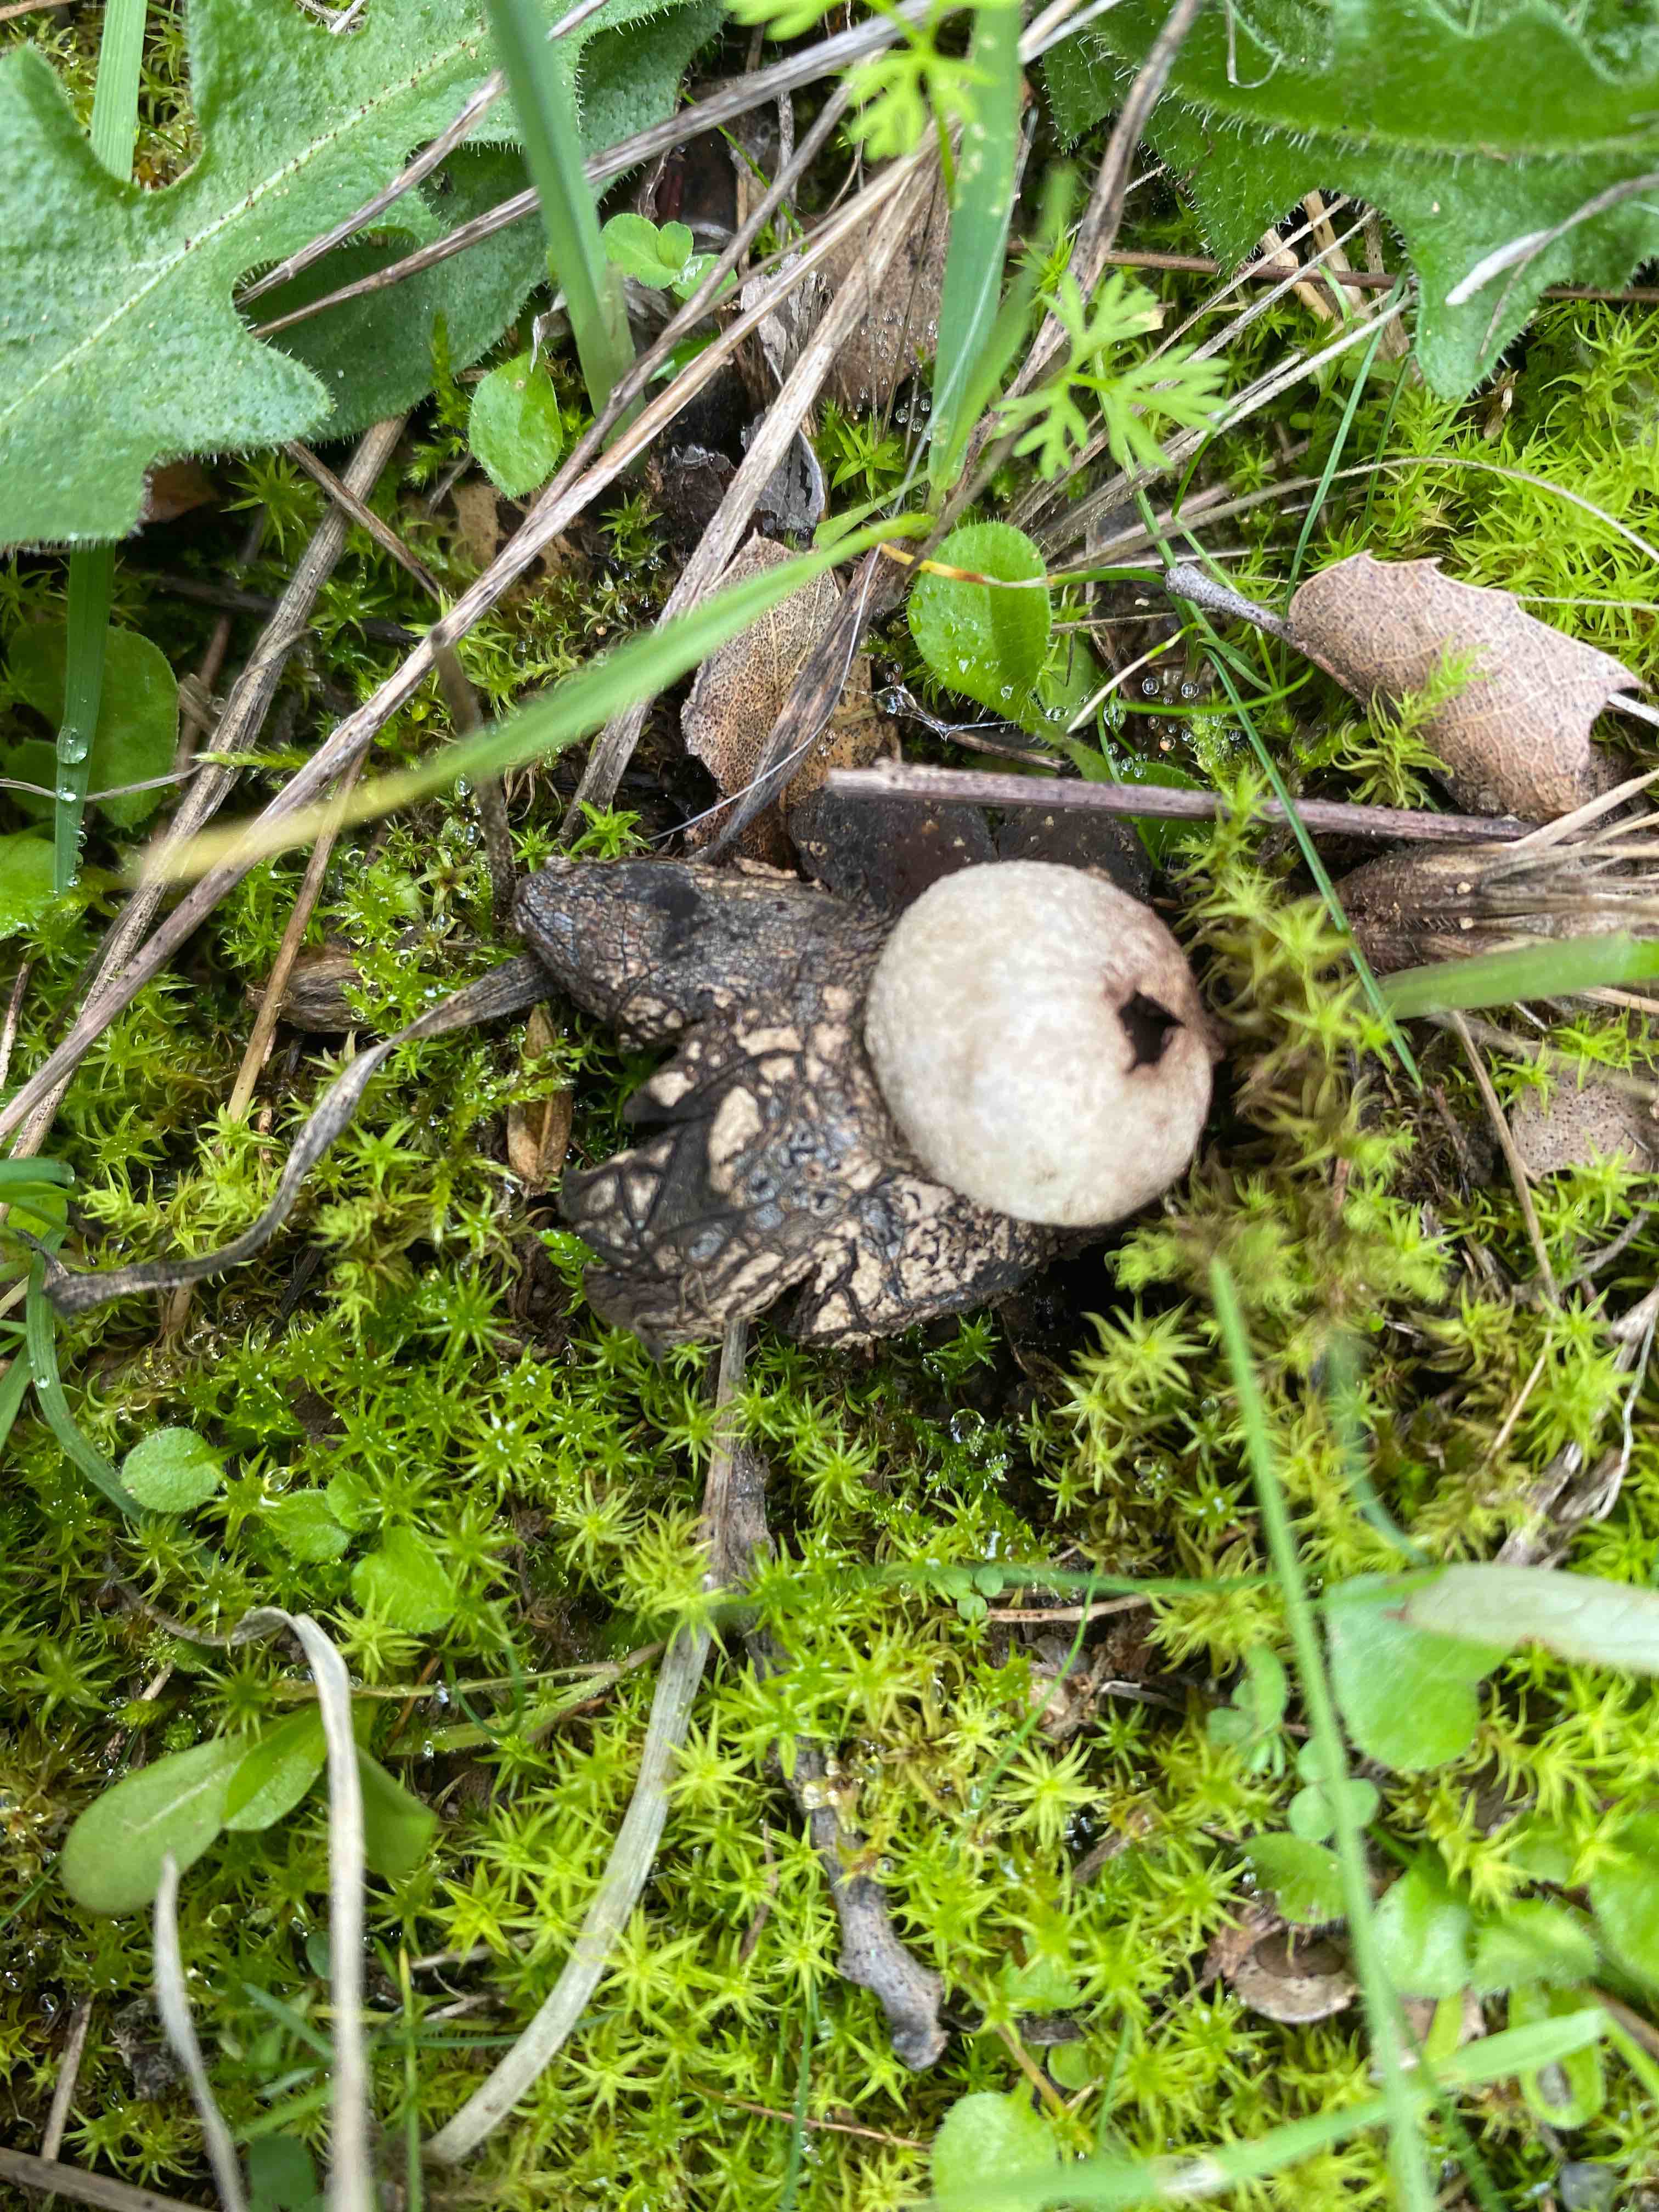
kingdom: Fungi
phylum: Basidiomycota
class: Agaricomycetes
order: Boletales
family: Diplocystidiaceae
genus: Astraeus
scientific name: Astraeus
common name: hygrometerstjerne
